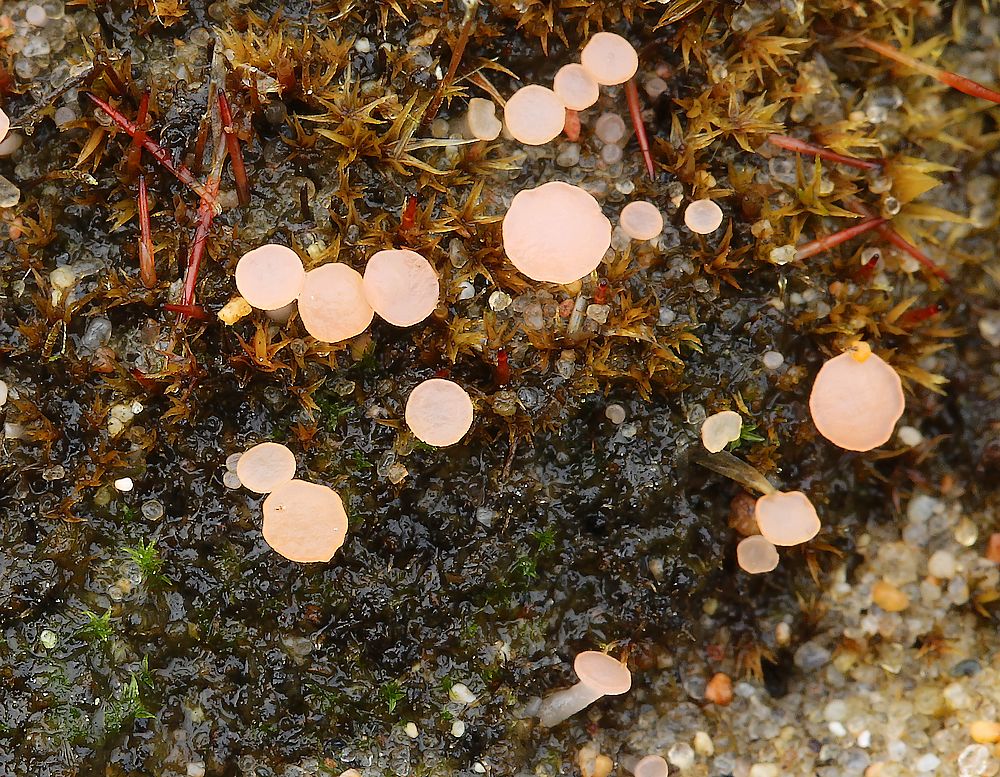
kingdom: Fungi
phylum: Ascomycota
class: Leotiomycetes
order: Helotiales
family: Hyaloscyphaceae
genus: Roseodiscus
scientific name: Roseodiscus formosus
